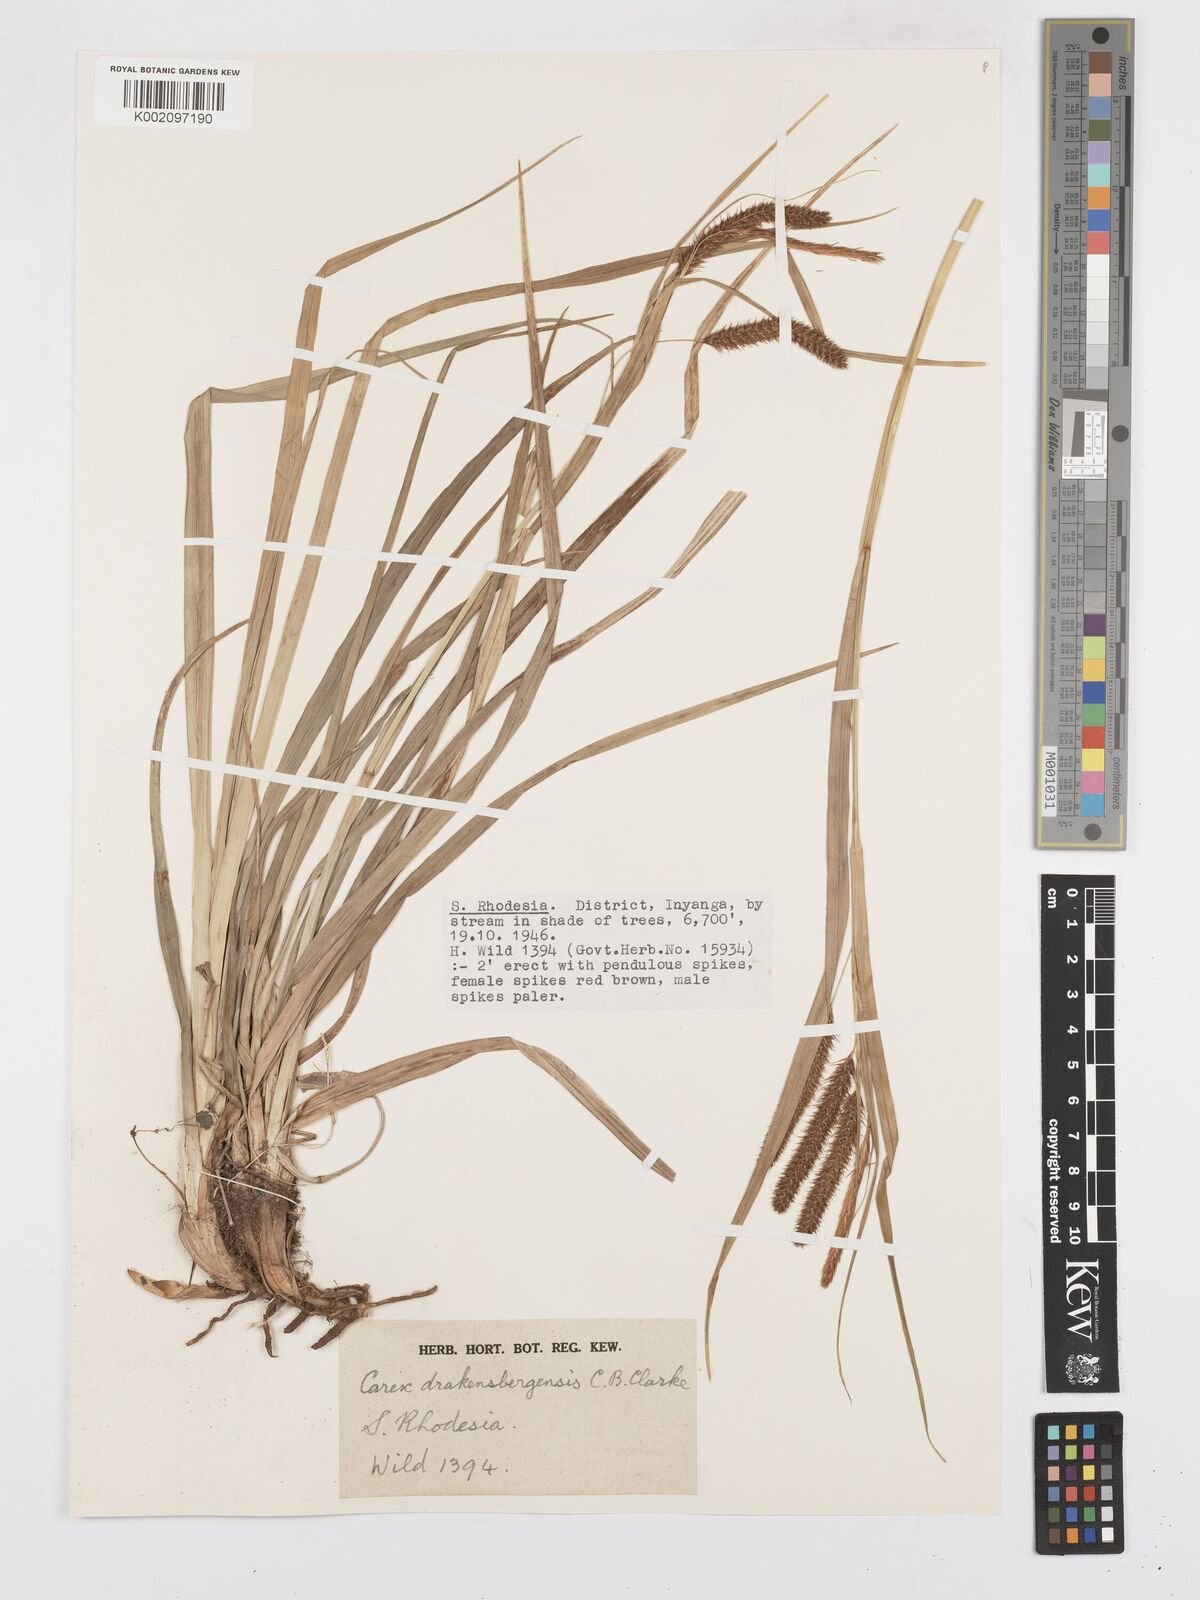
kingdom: Plantae
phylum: Tracheophyta
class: Liliopsida
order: Poales
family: Cyperaceae
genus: Carex
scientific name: Carex cognata
